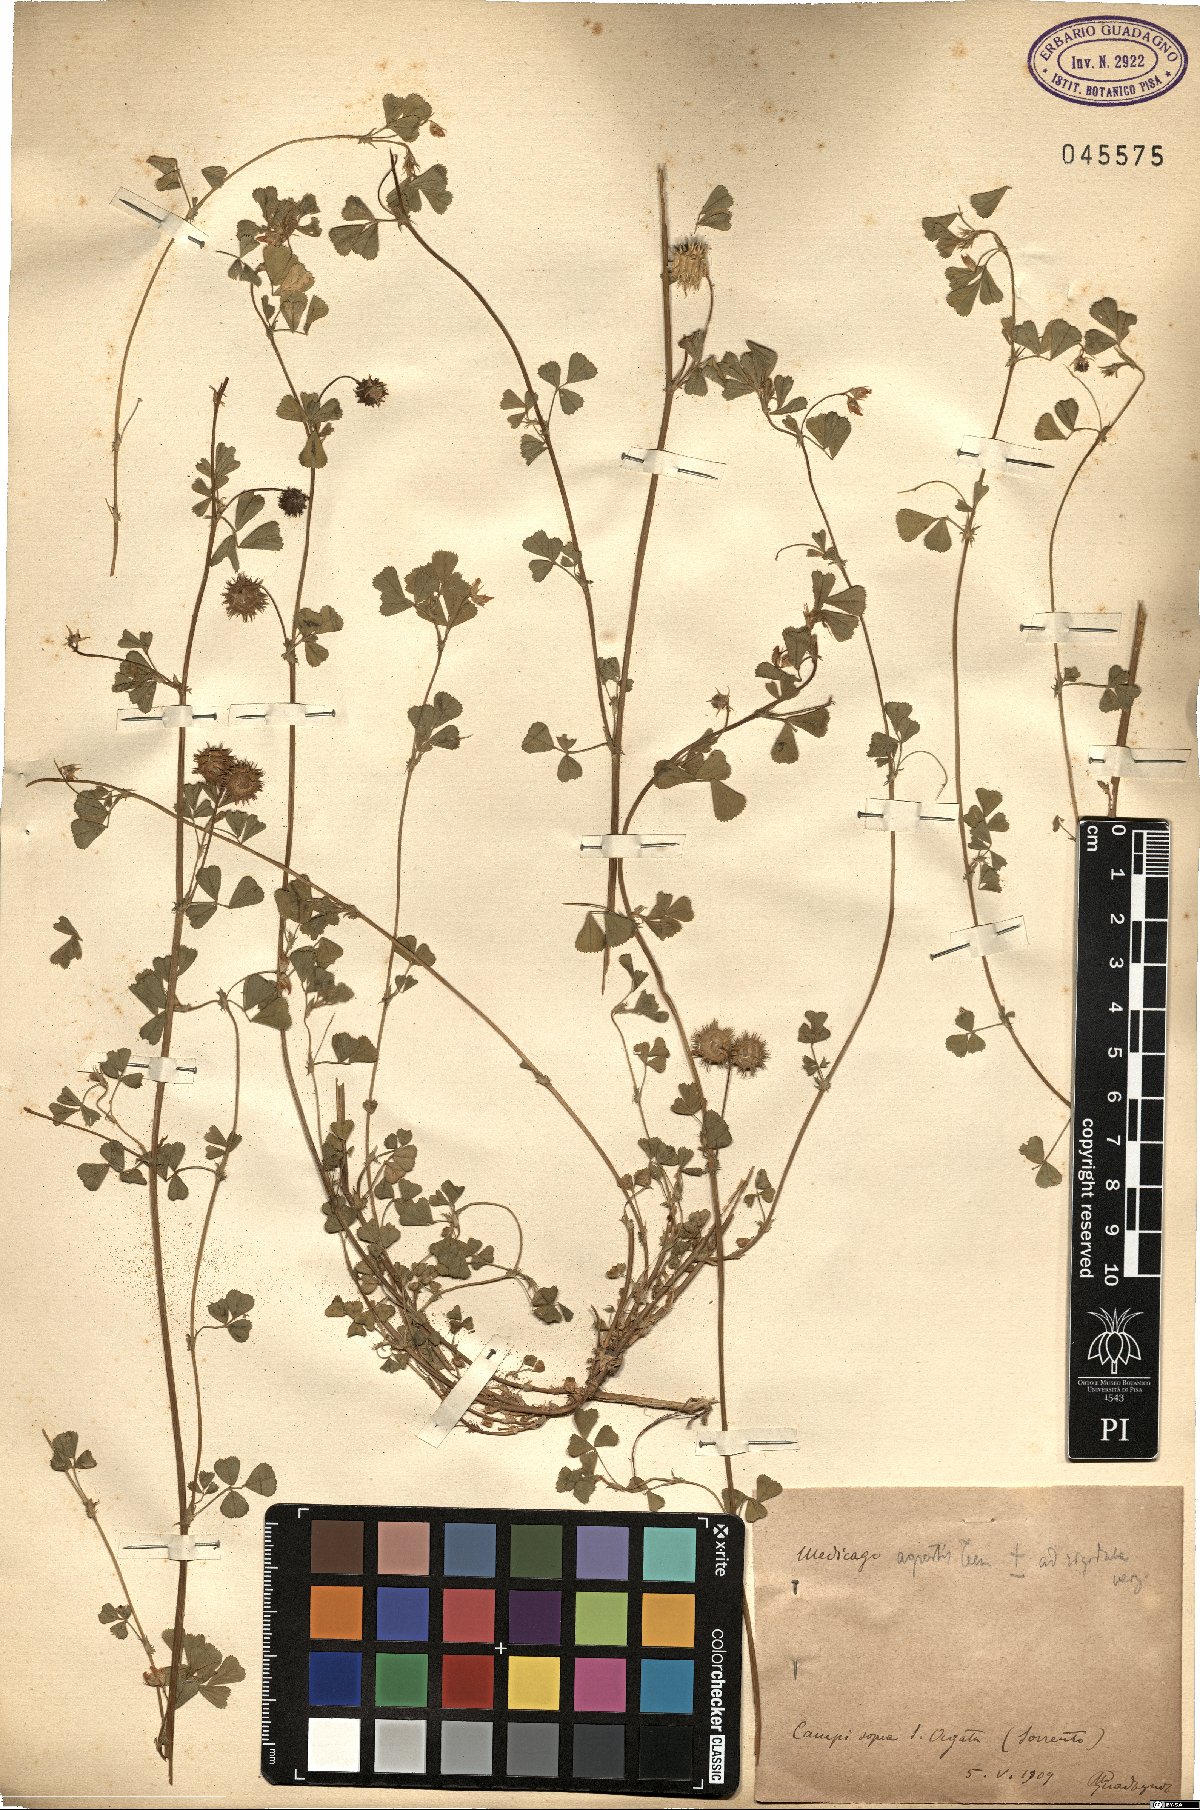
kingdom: Plantae
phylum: Tracheophyta
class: Magnoliopsida
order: Fabales
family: Fabaceae
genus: Medicago
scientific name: Medicago rigidula
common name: Tifton medic
